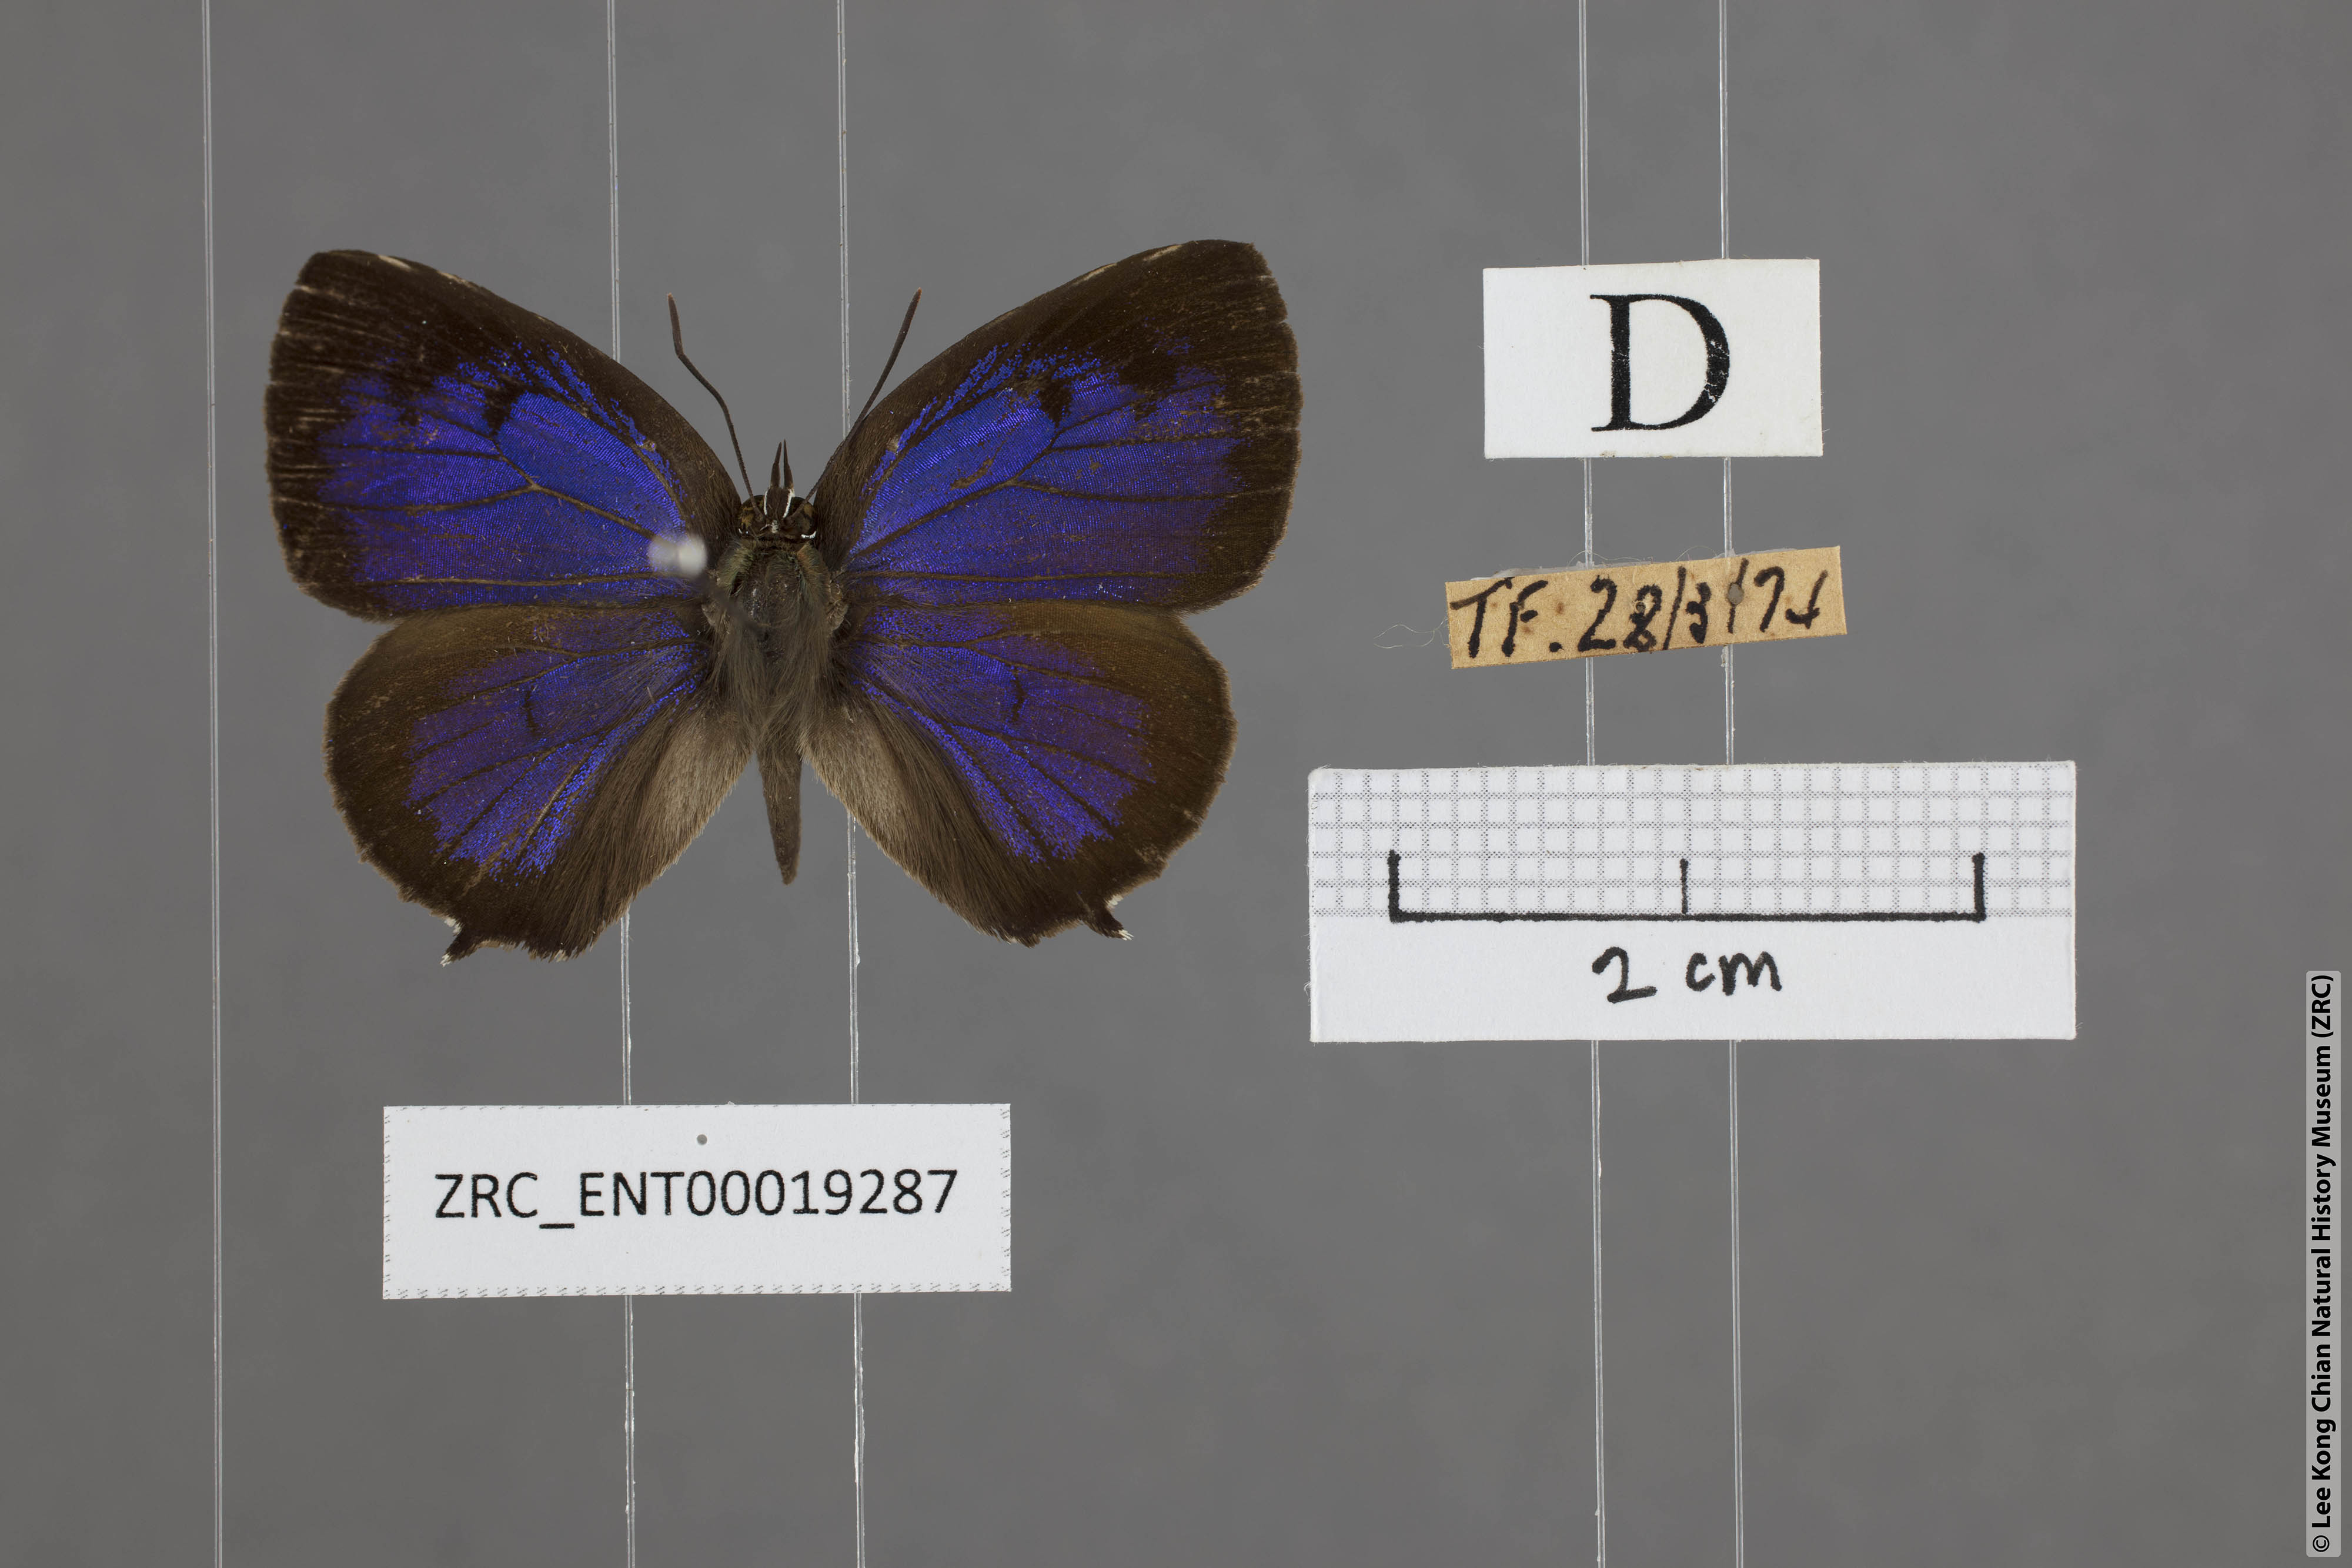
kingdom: Animalia
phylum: Arthropoda
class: Insecta
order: Lepidoptera
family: Lycaenidae
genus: Arhopala
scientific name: Arhopala aurea
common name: Long-celled oakblue
